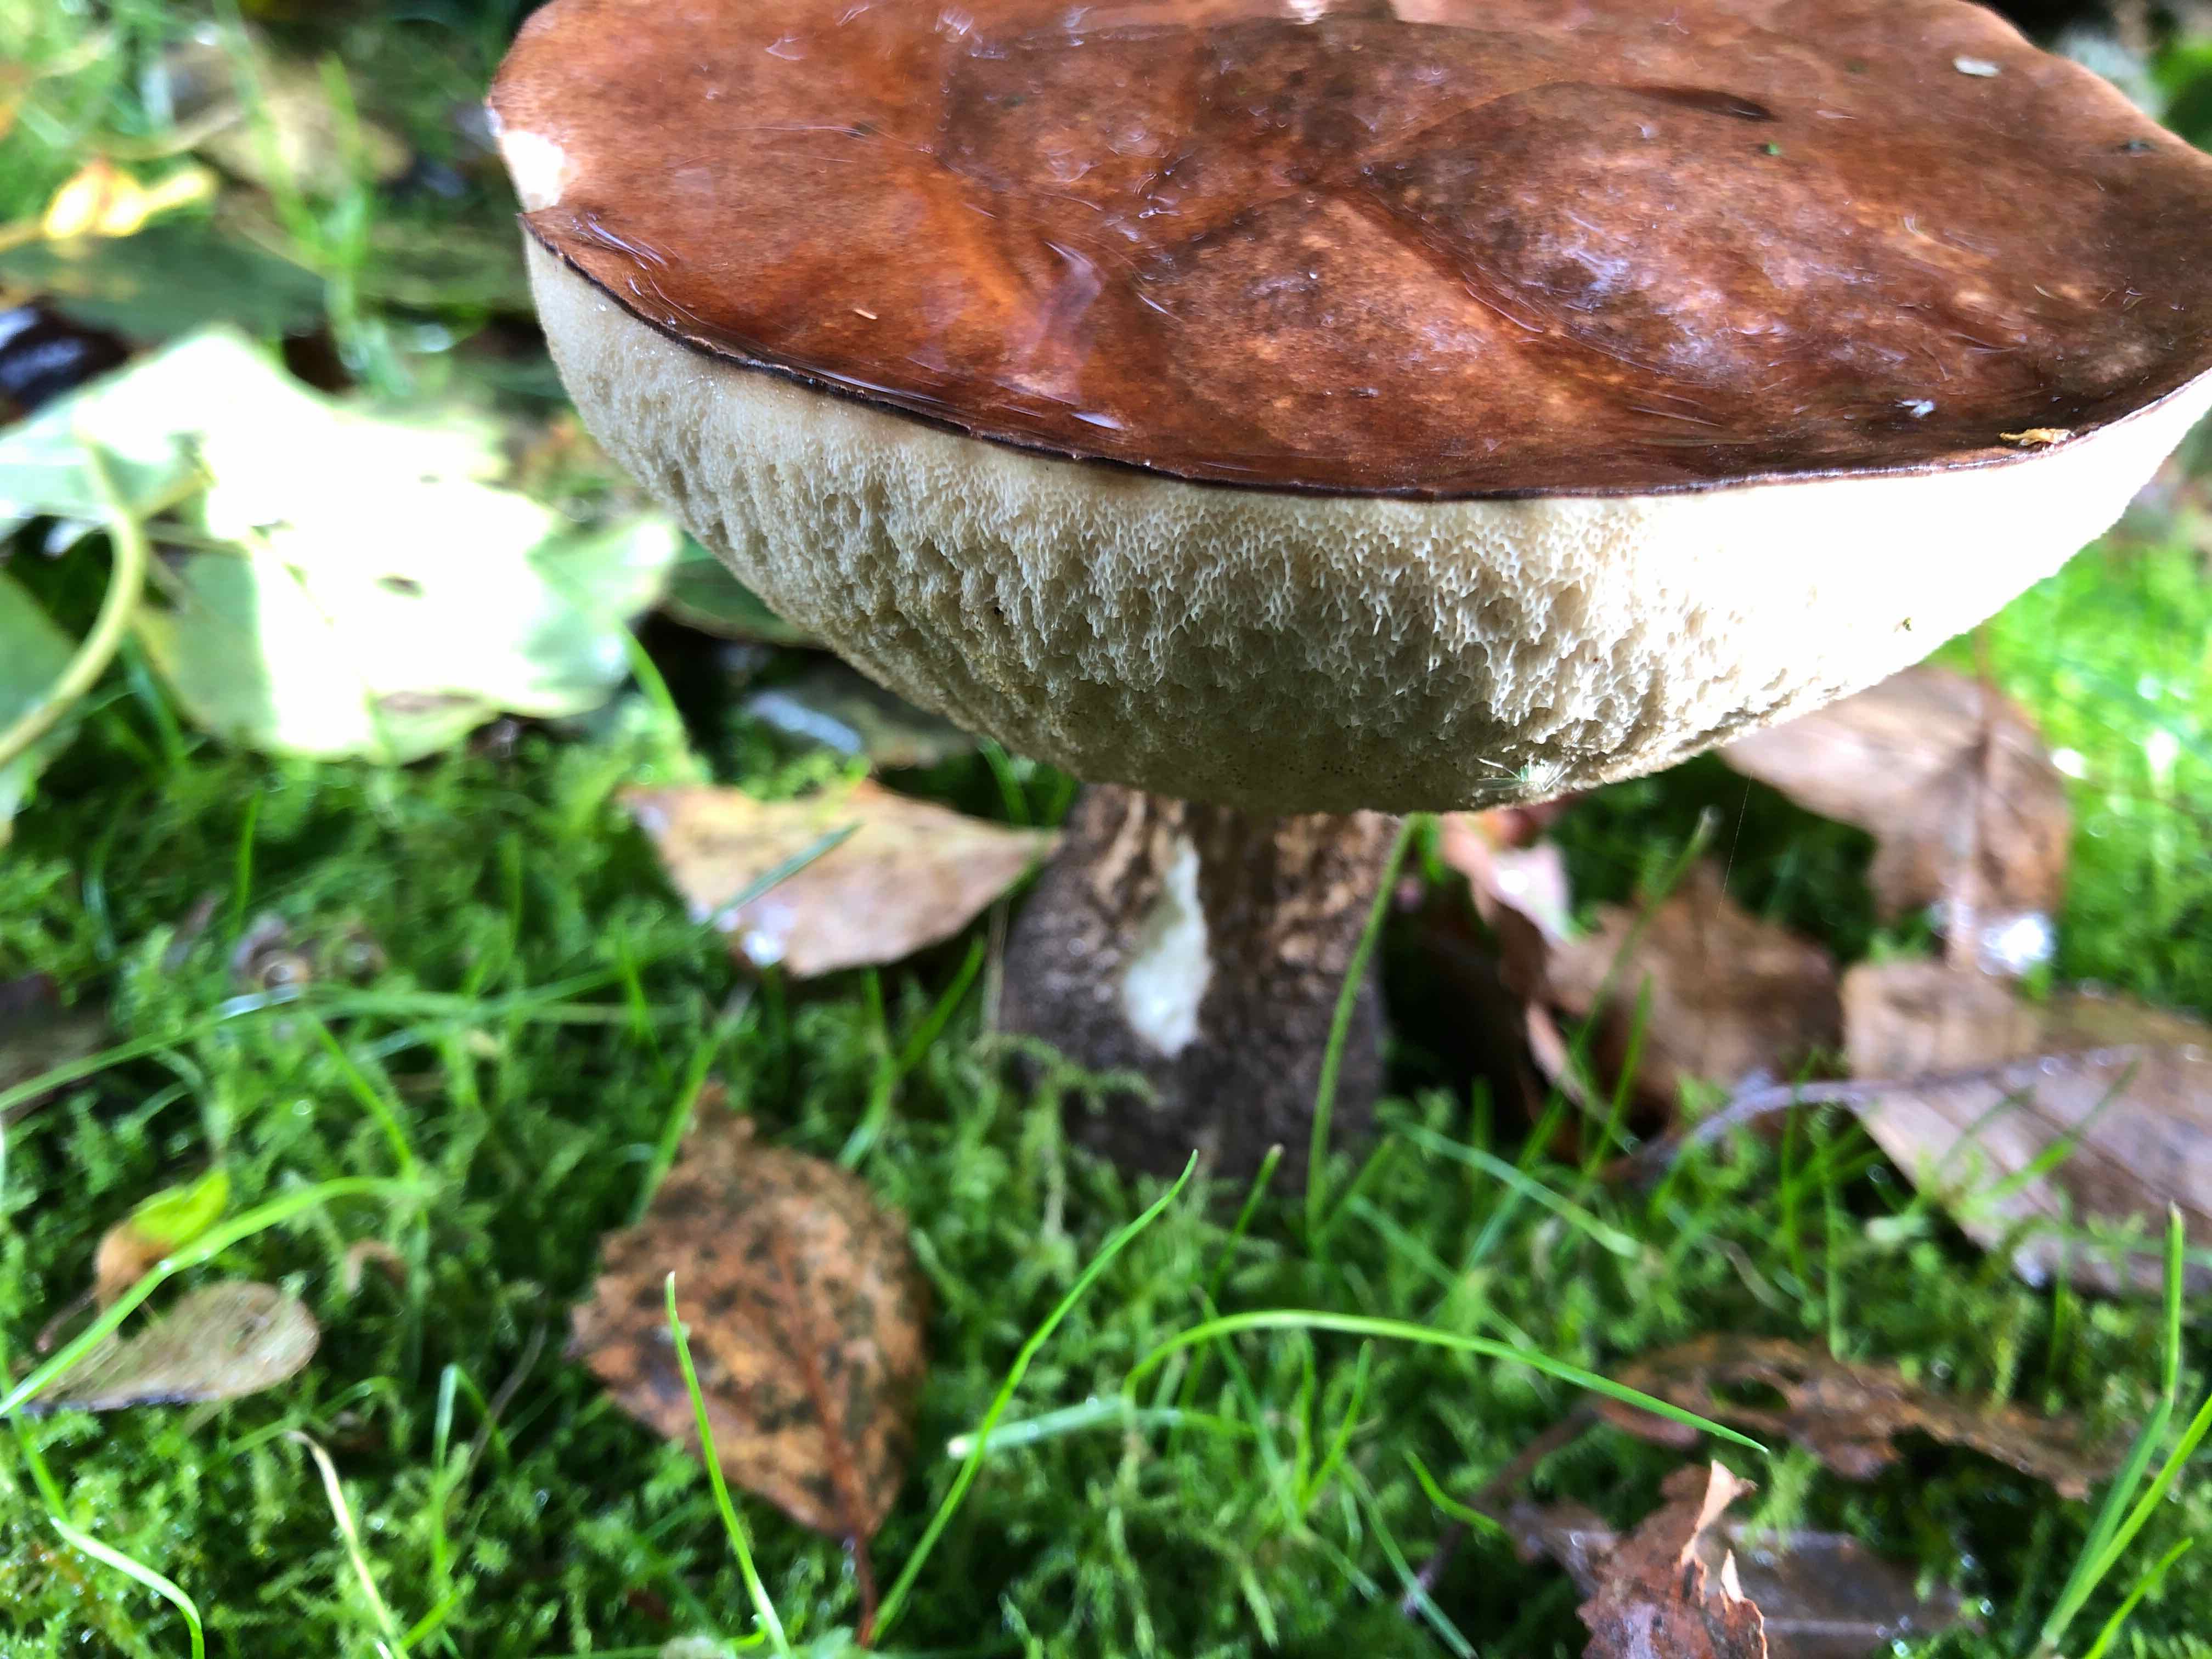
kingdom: Fungi
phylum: Basidiomycota
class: Agaricomycetes
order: Boletales
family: Boletaceae
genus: Leccinum
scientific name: Leccinum scabrum
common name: brun skælrørhat
